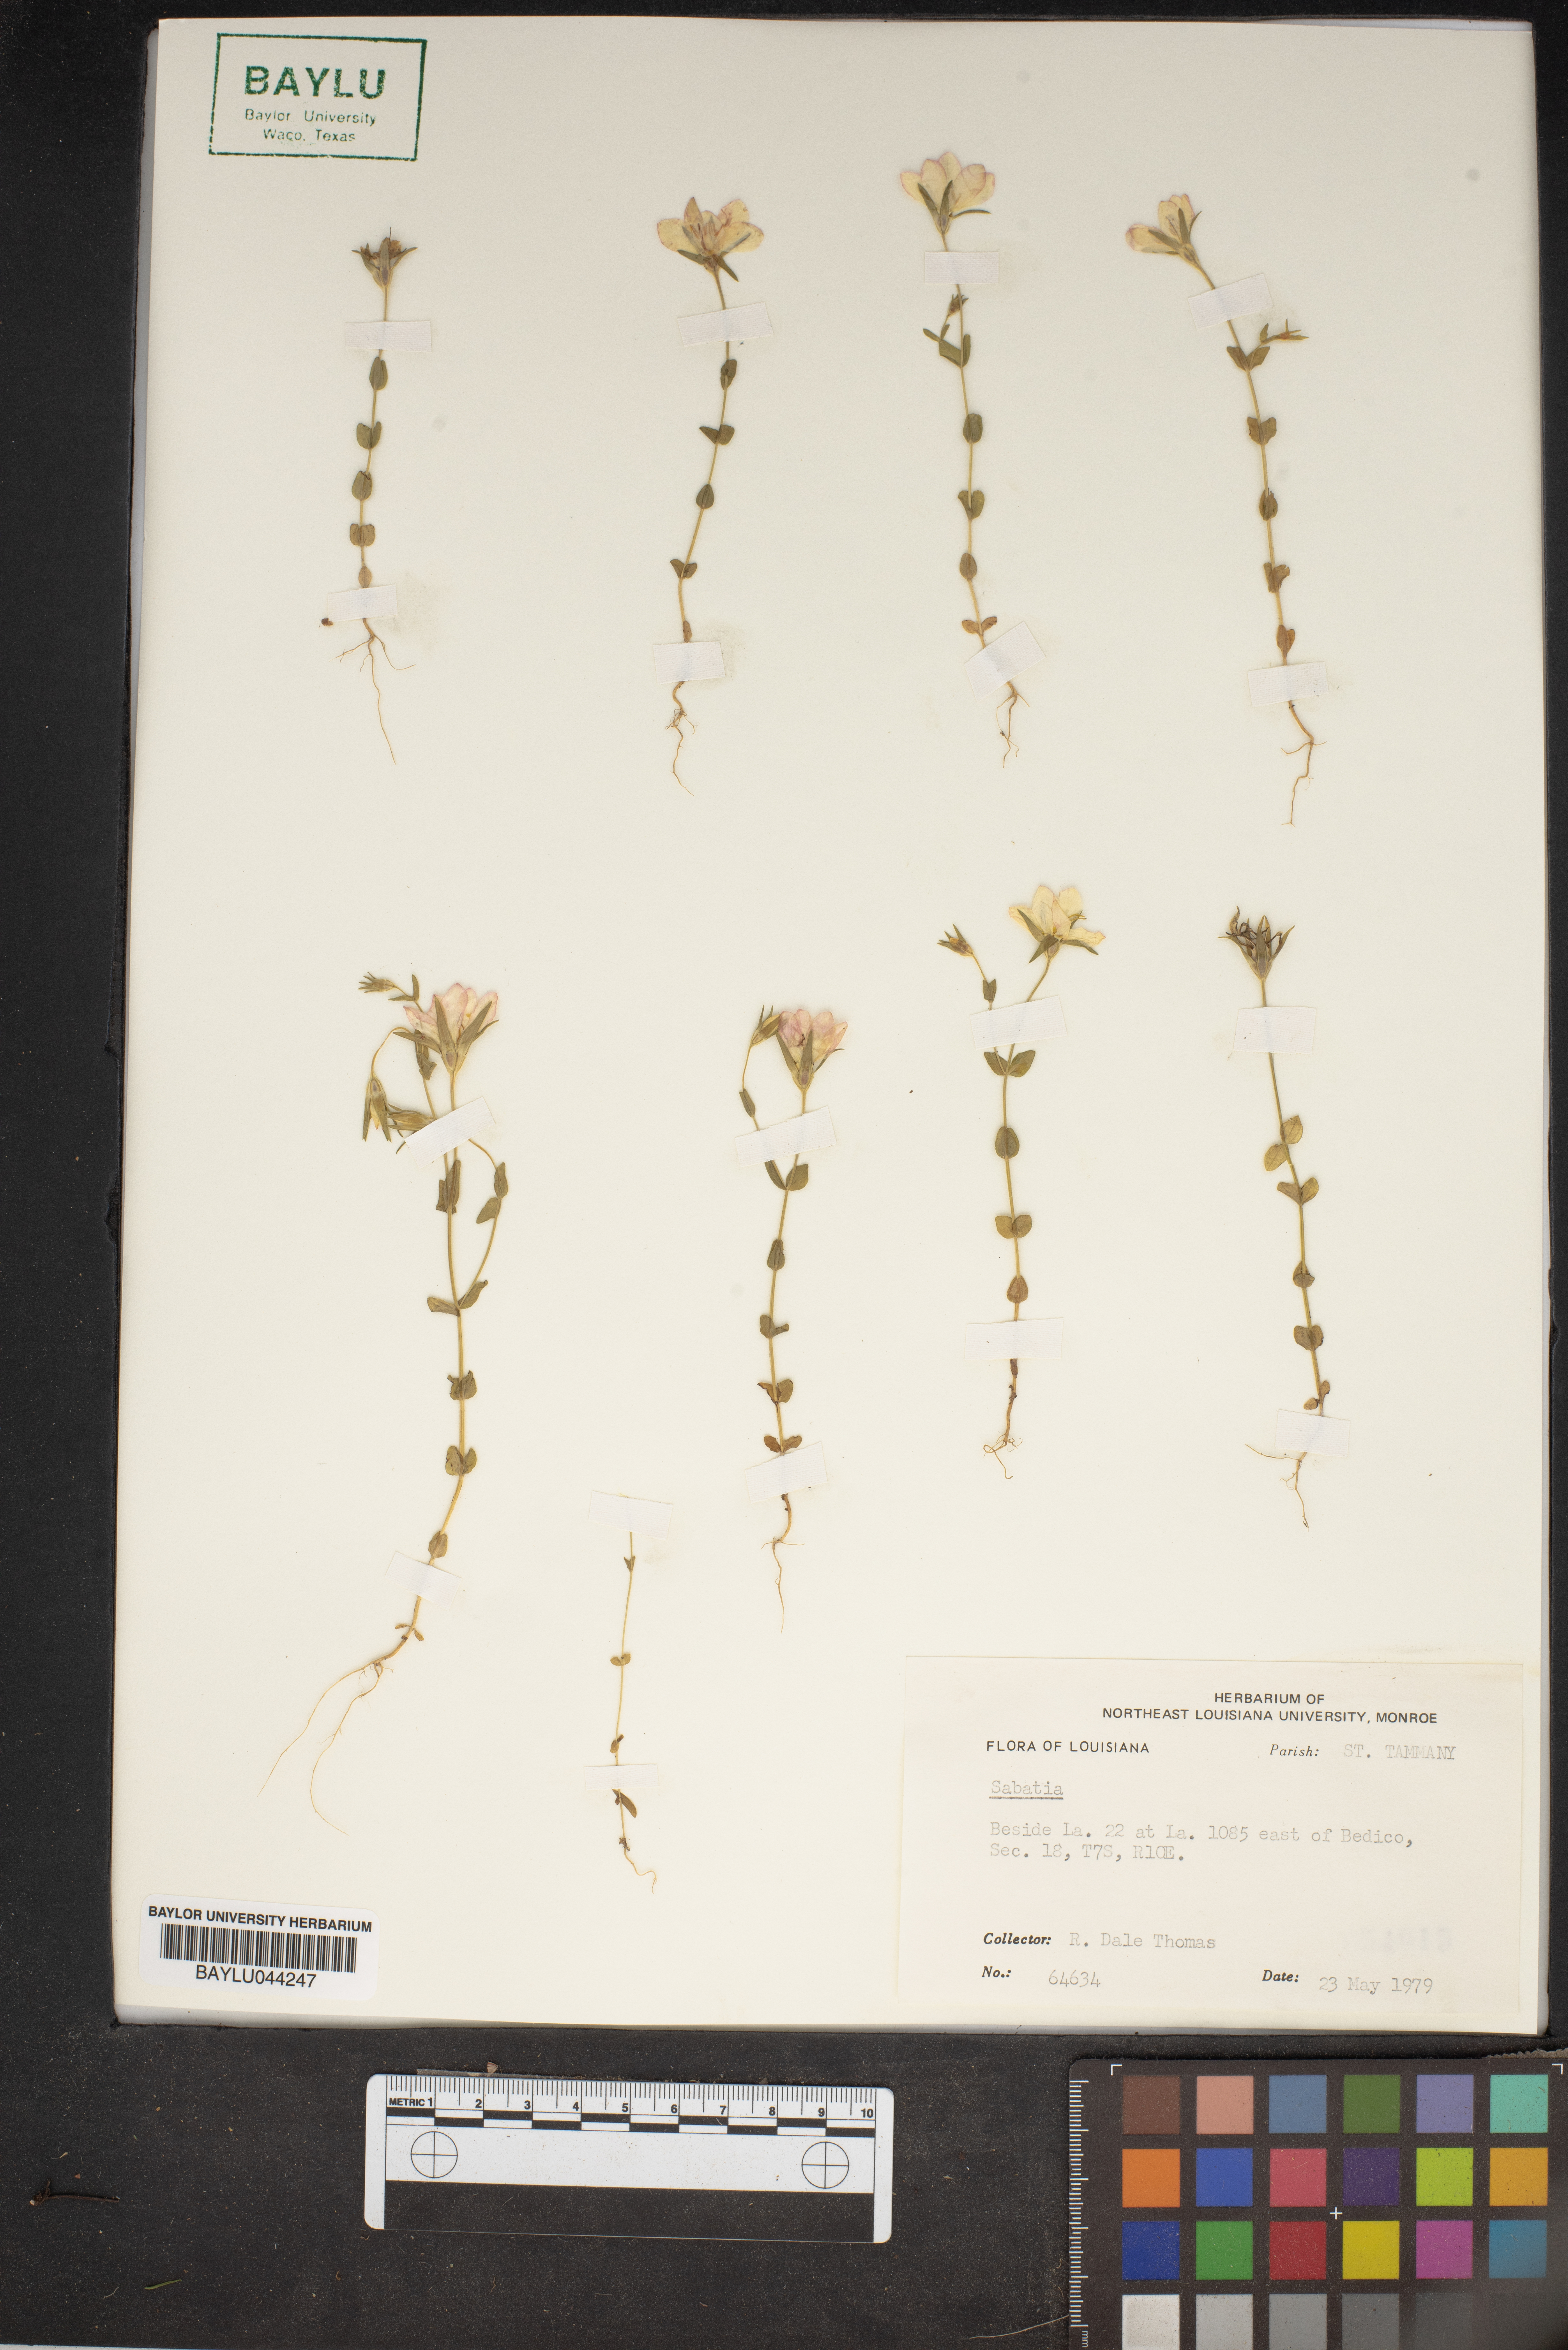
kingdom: Plantae
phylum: Tracheophyta
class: Magnoliopsida
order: Gentianales
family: Gentianaceae
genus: Sabatia
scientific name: Sabatia
